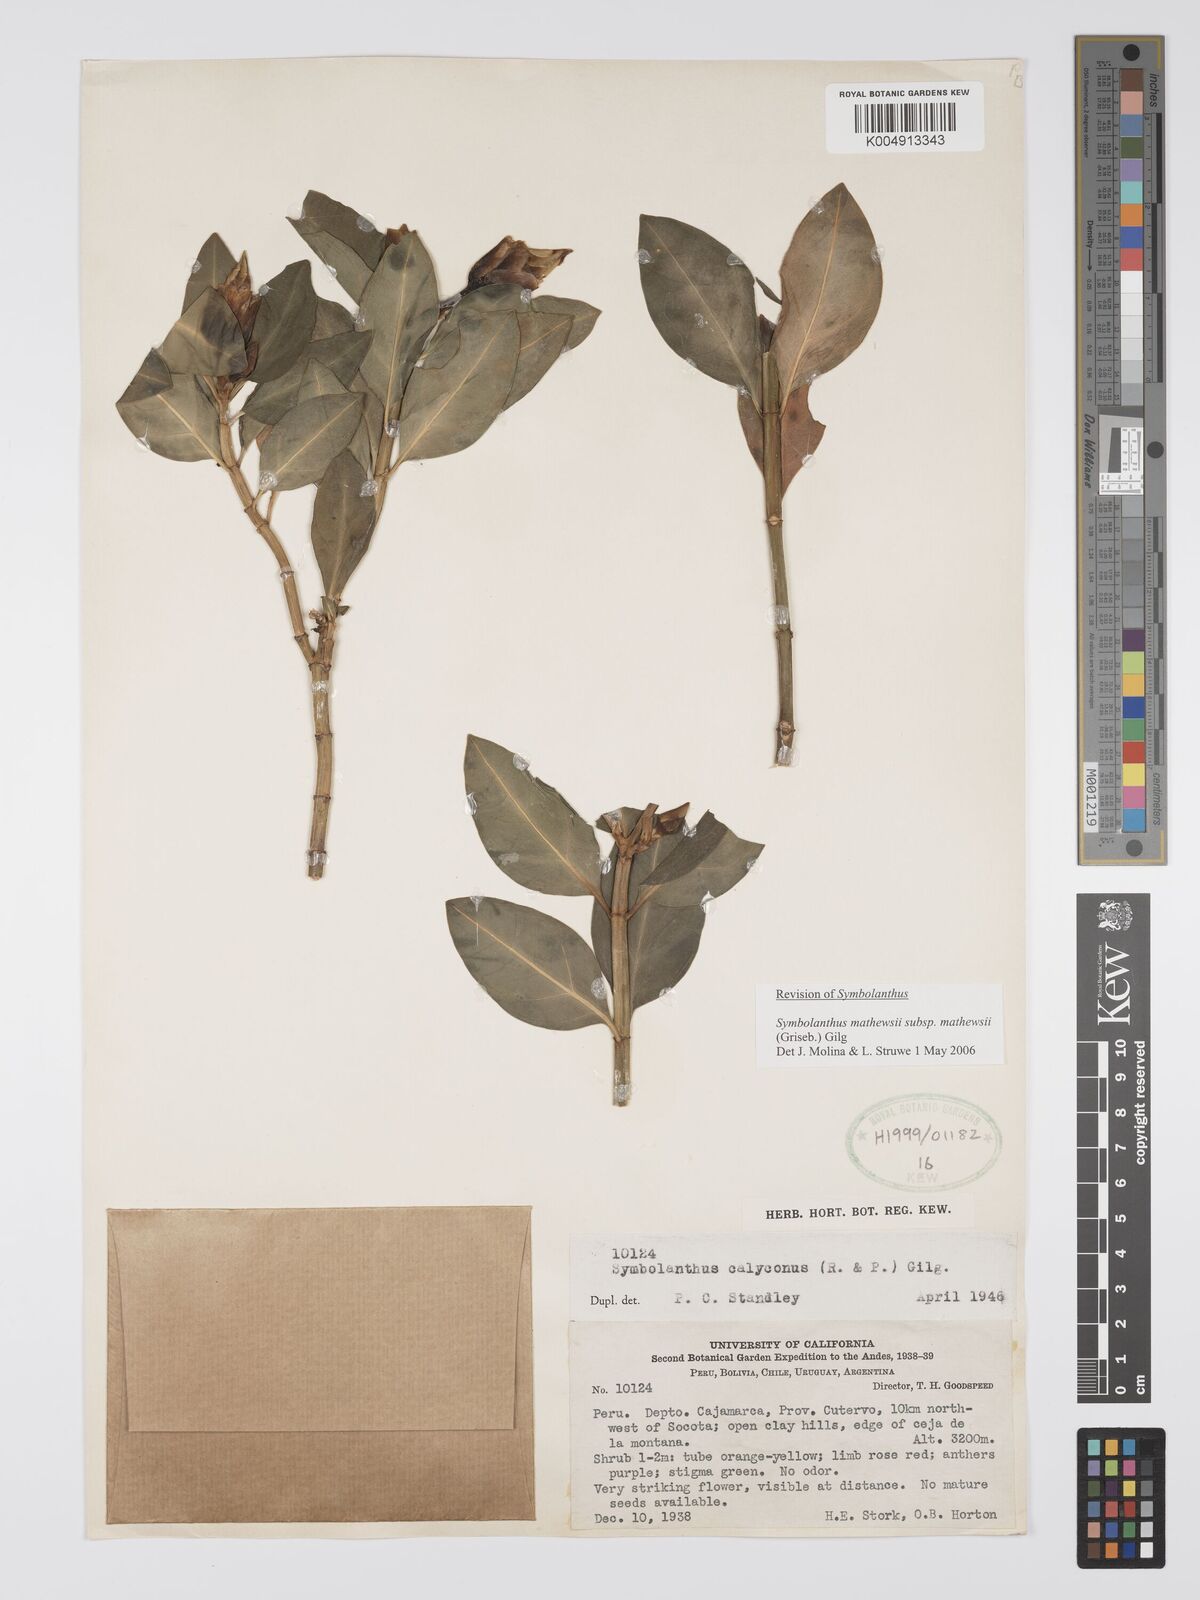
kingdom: Plantae
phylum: Tracheophyta
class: Magnoliopsida
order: Gentianales
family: Gentianaceae
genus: Symbolanthus
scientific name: Symbolanthus mathewsii
